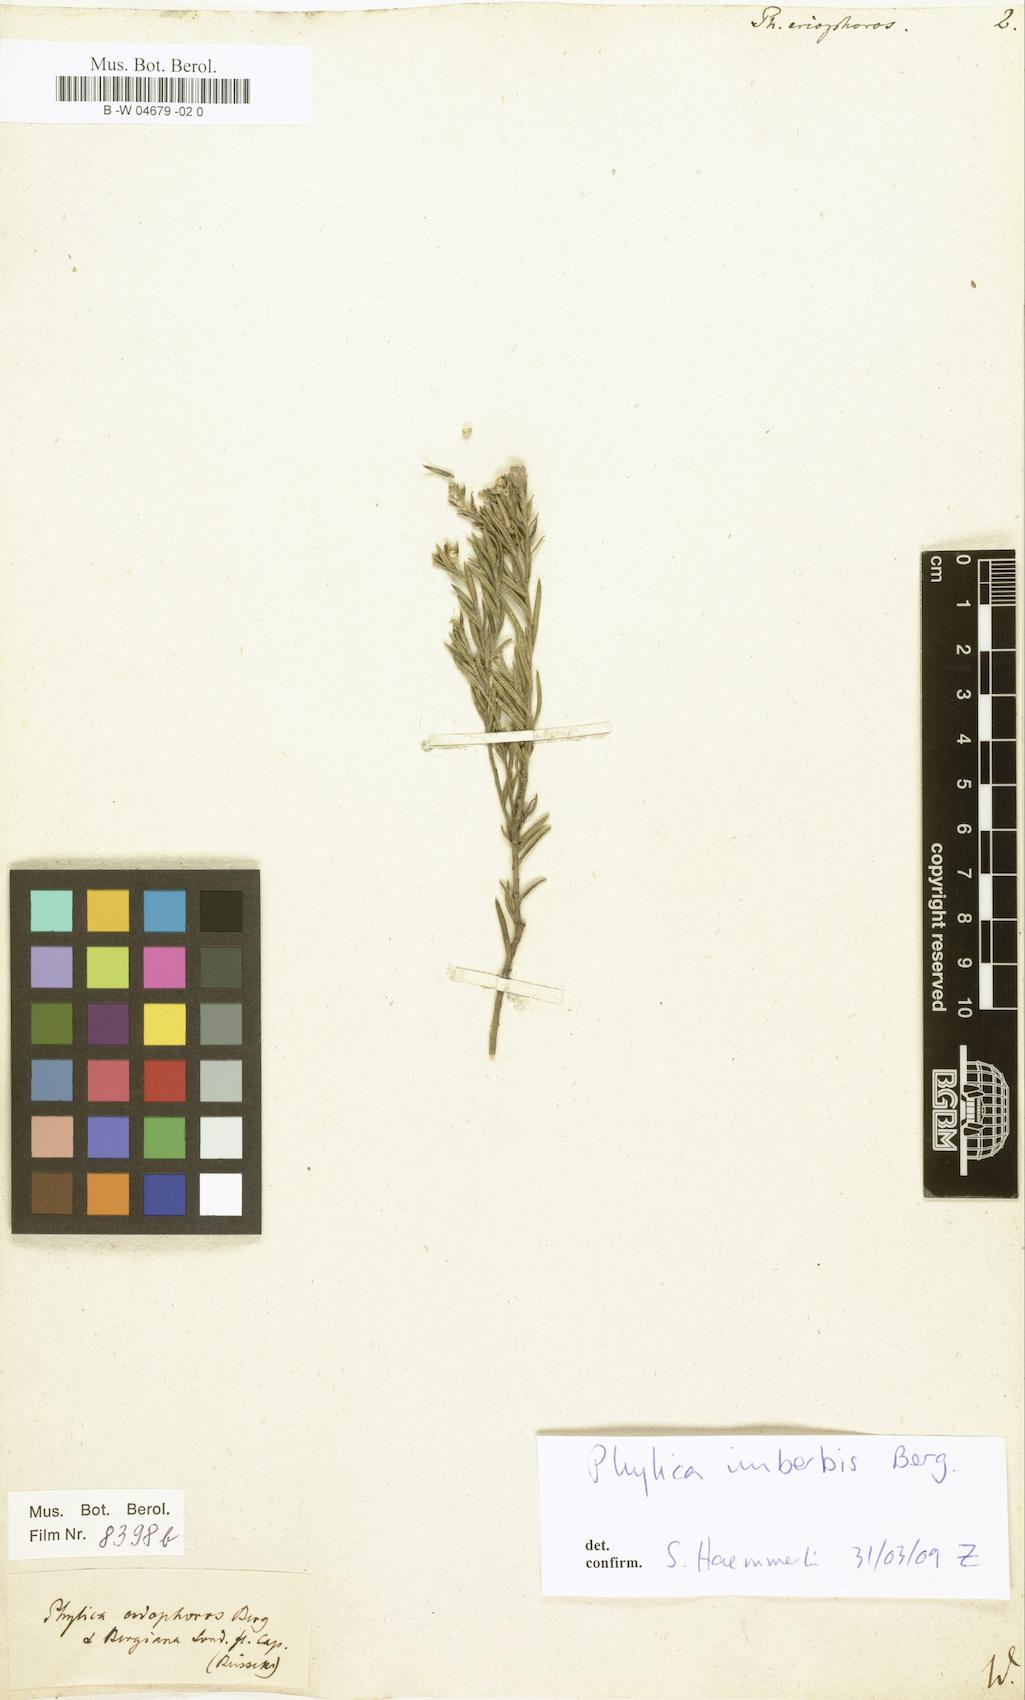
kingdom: Plantae
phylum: Tracheophyta
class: Magnoliopsida
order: Rosales
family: Rhamnaceae
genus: Phylica
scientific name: Phylica imberbis
